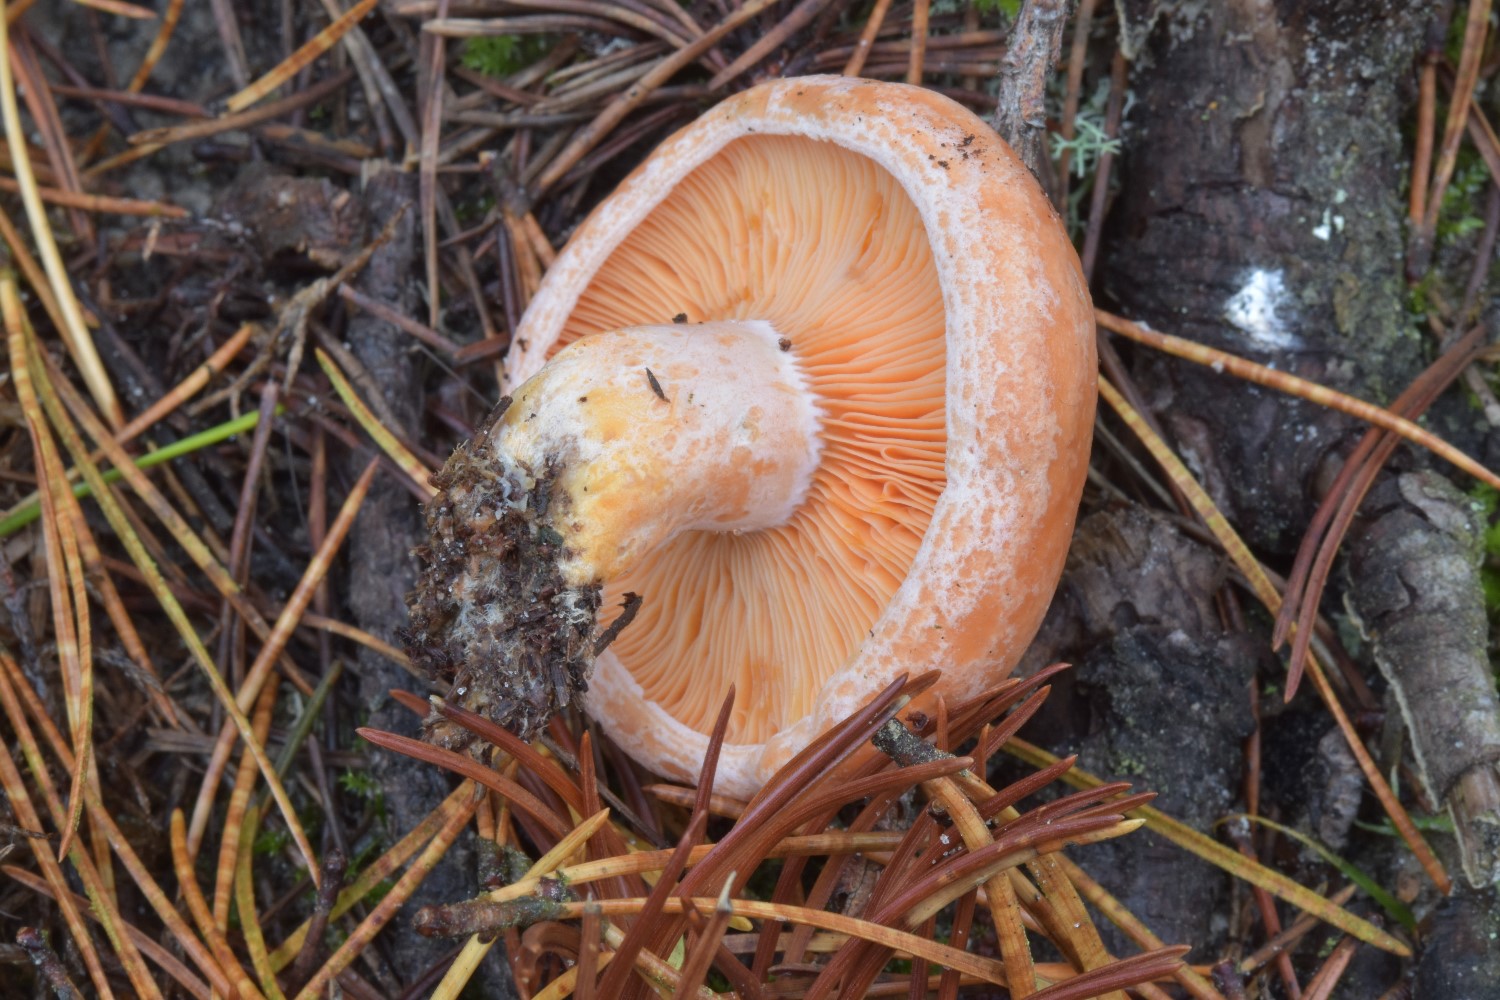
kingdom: Fungi
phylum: Basidiomycota
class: Agaricomycetes
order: Russulales
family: Russulaceae
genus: Lactarius
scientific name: Lactarius deliciosus
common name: velsmagende mælkehat
